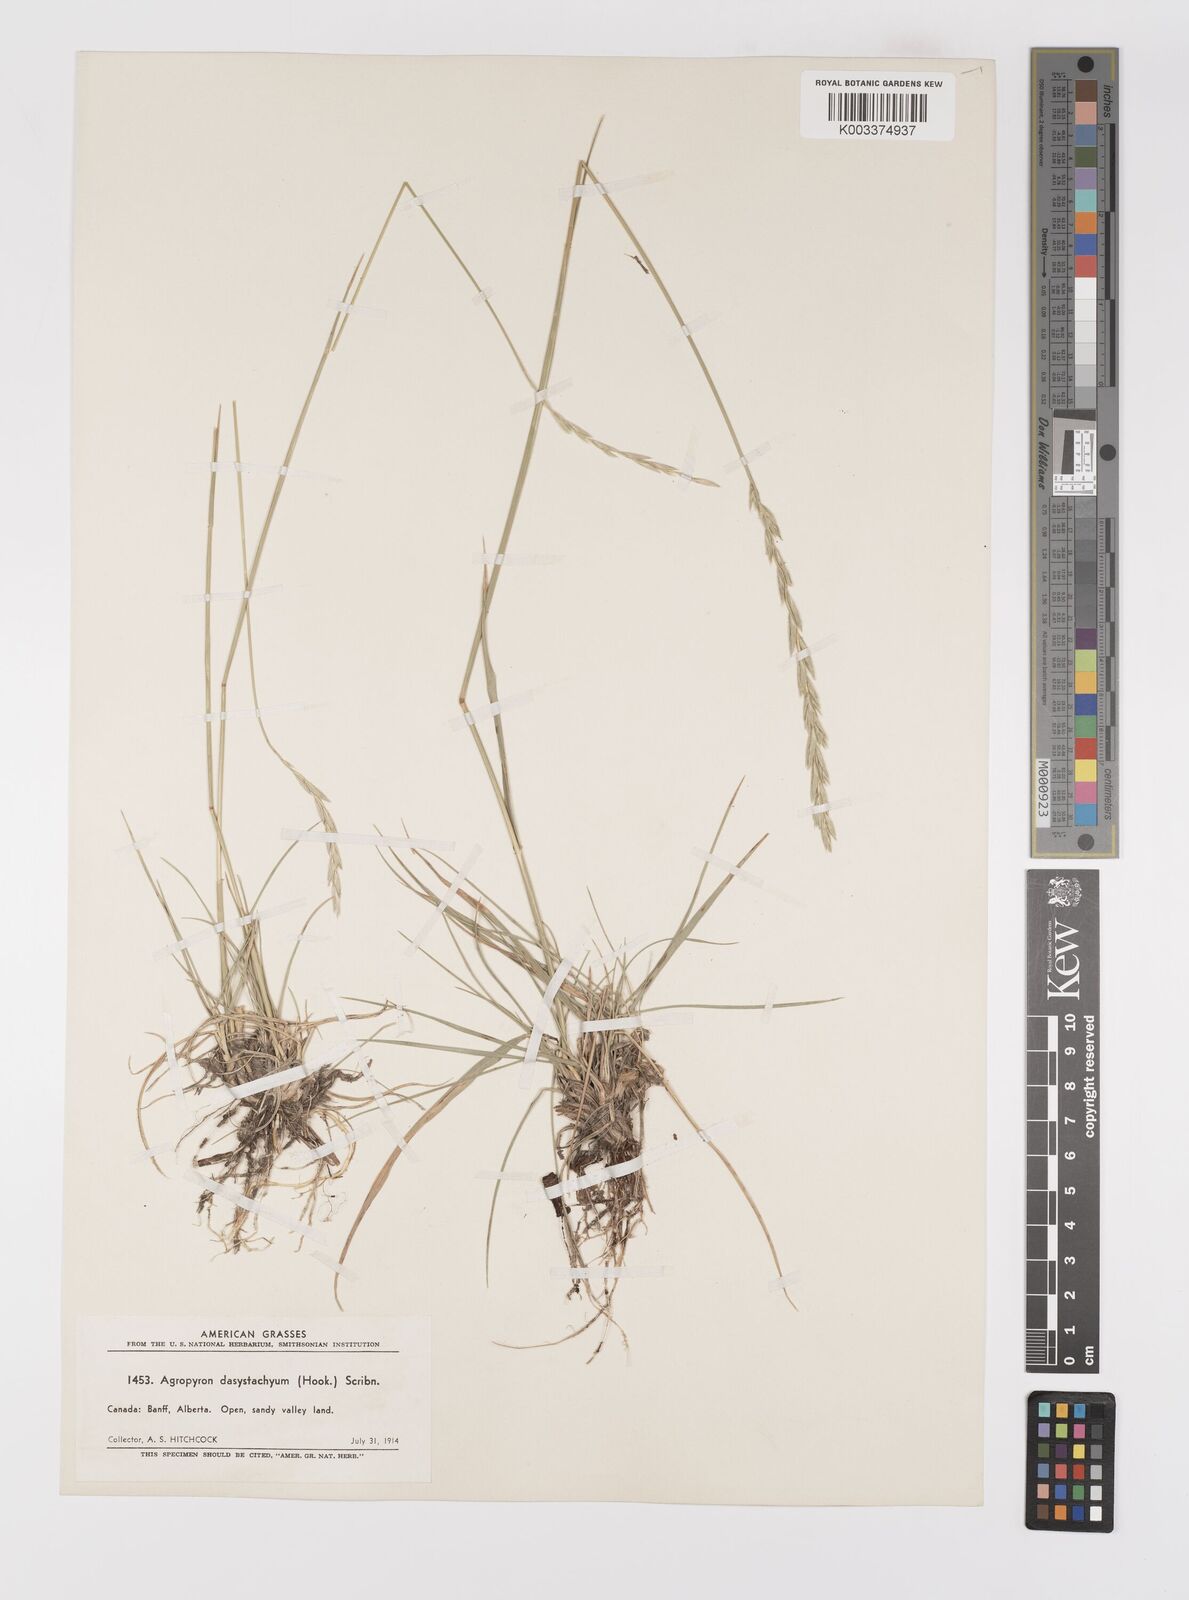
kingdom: Plantae
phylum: Tracheophyta
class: Liliopsida
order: Poales
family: Poaceae
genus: Elymus
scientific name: Elymus lanceolatus
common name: Thick-spike wheatgrass
